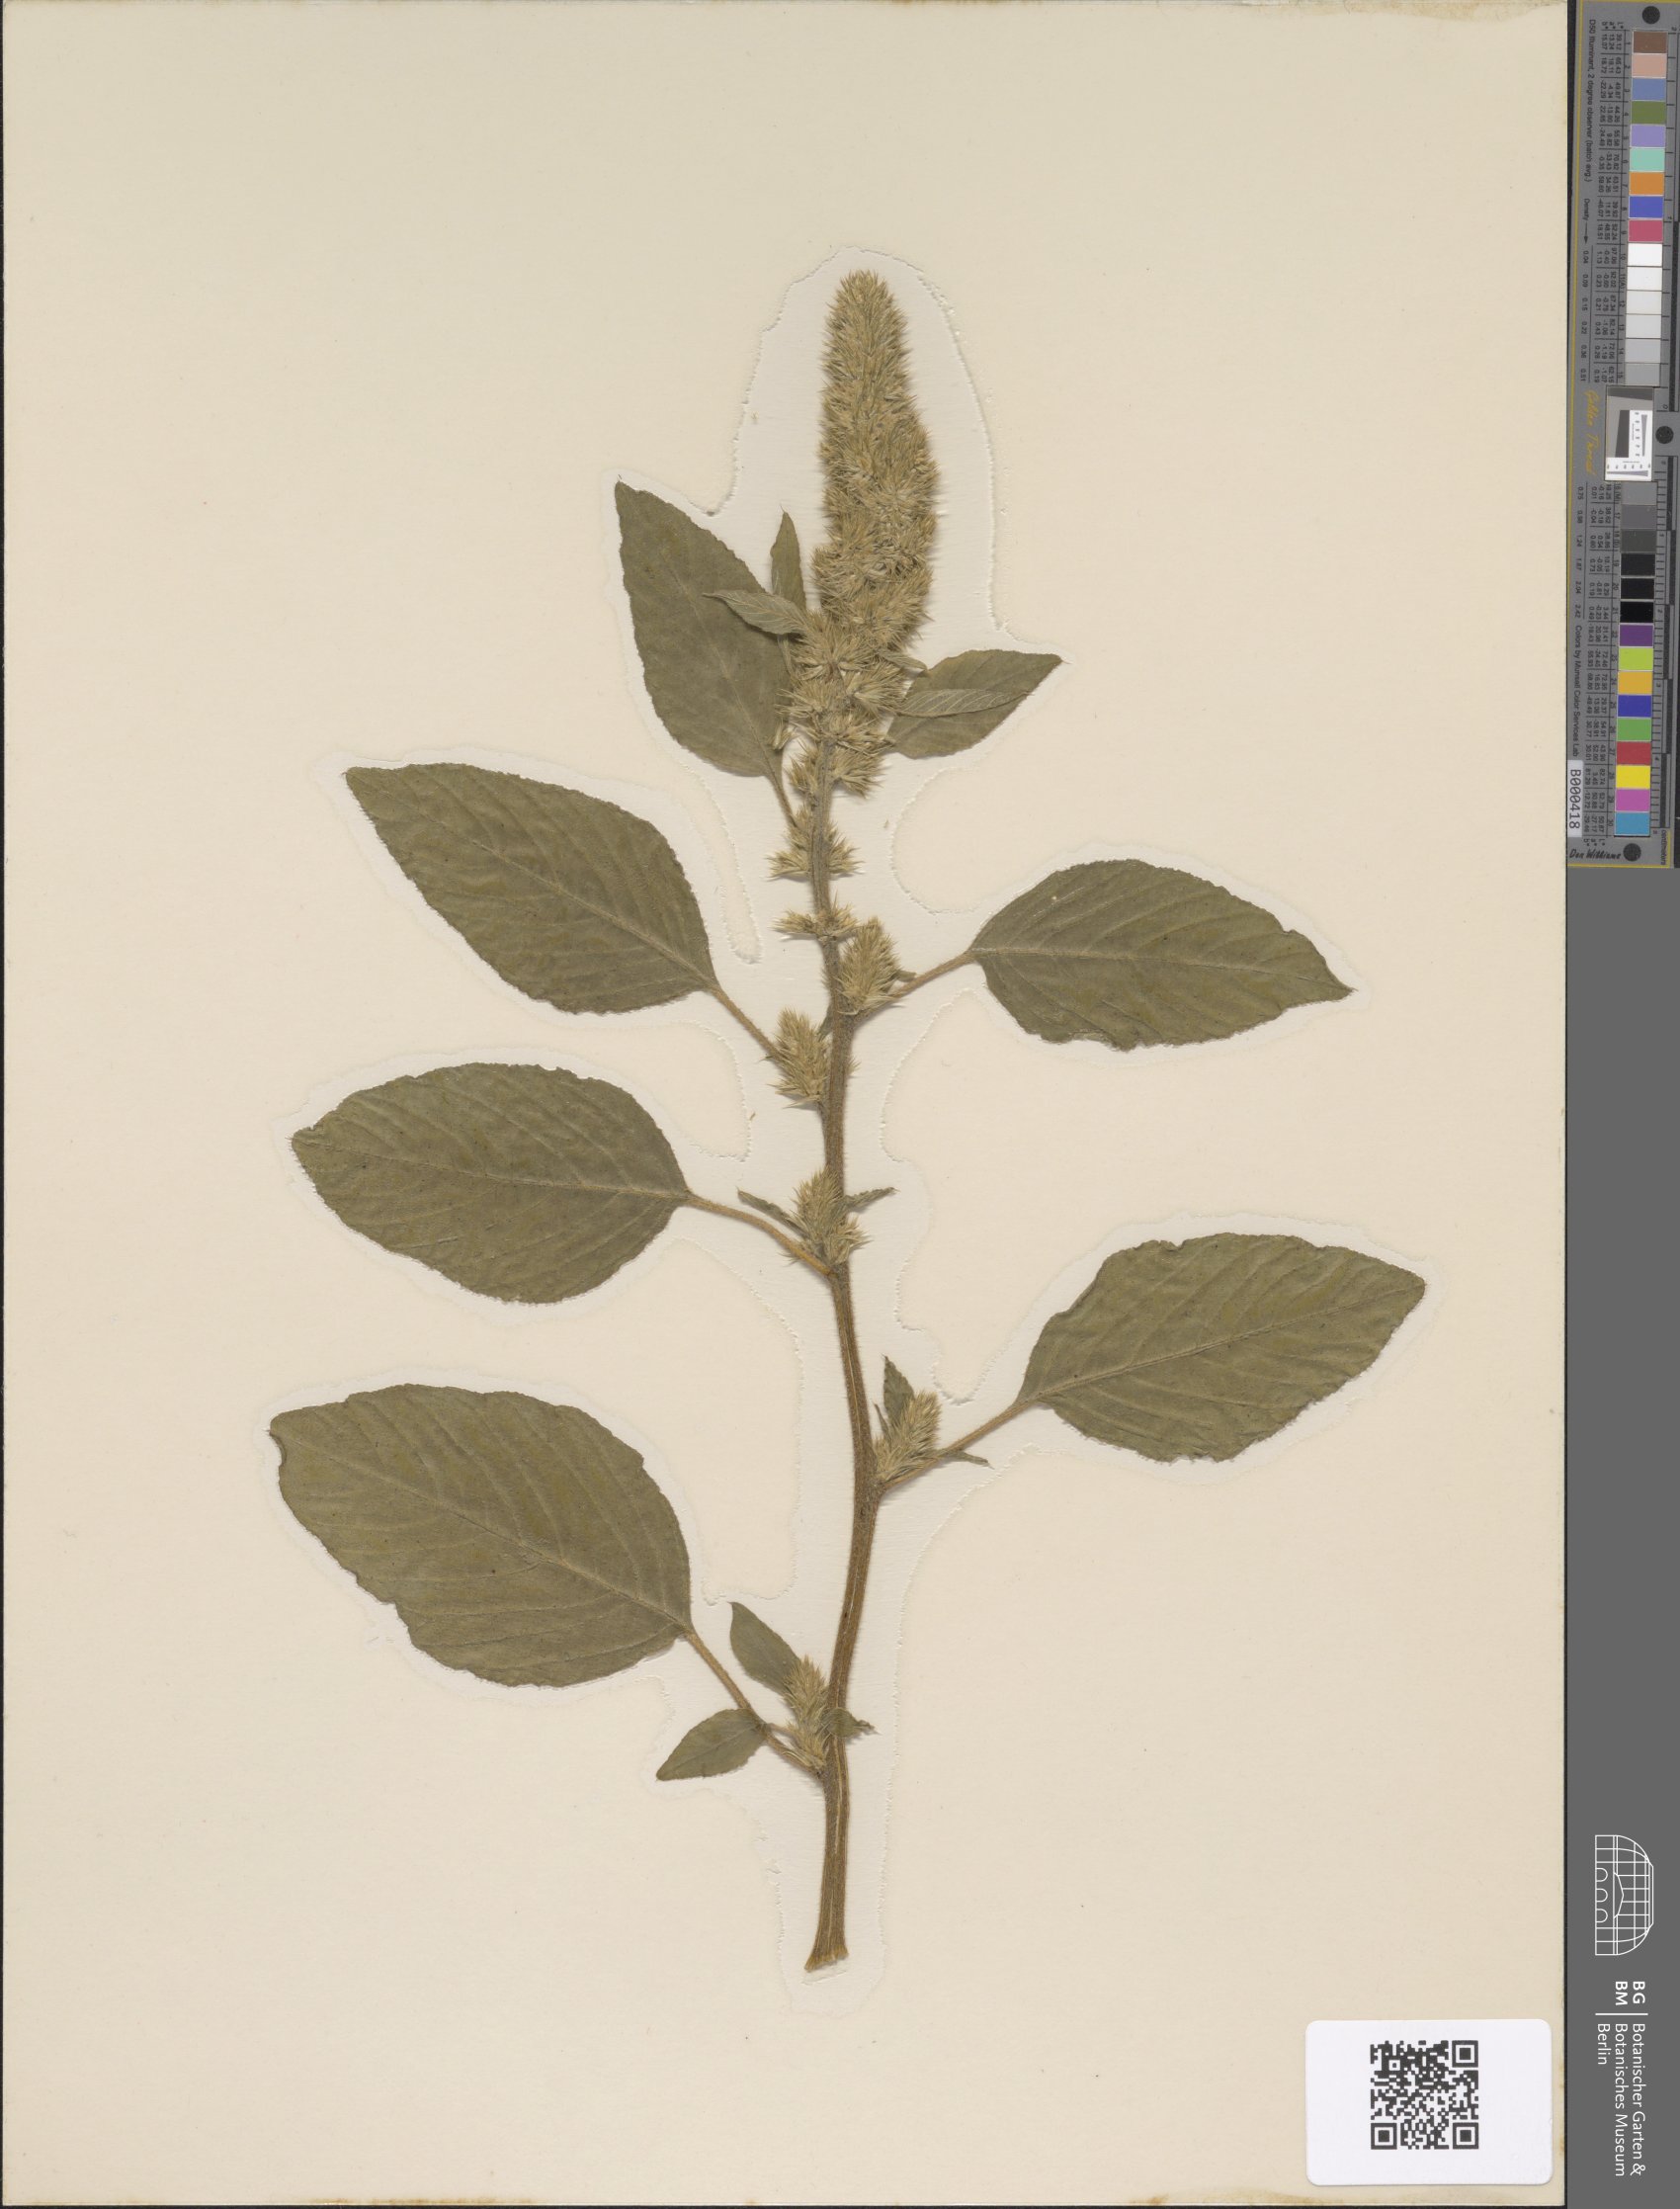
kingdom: Plantae
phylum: Tracheophyta
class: Magnoliopsida
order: Caryophyllales
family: Amaranthaceae
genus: Amaranthus
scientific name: Amaranthus retroflexus
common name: Redroot amaranth
